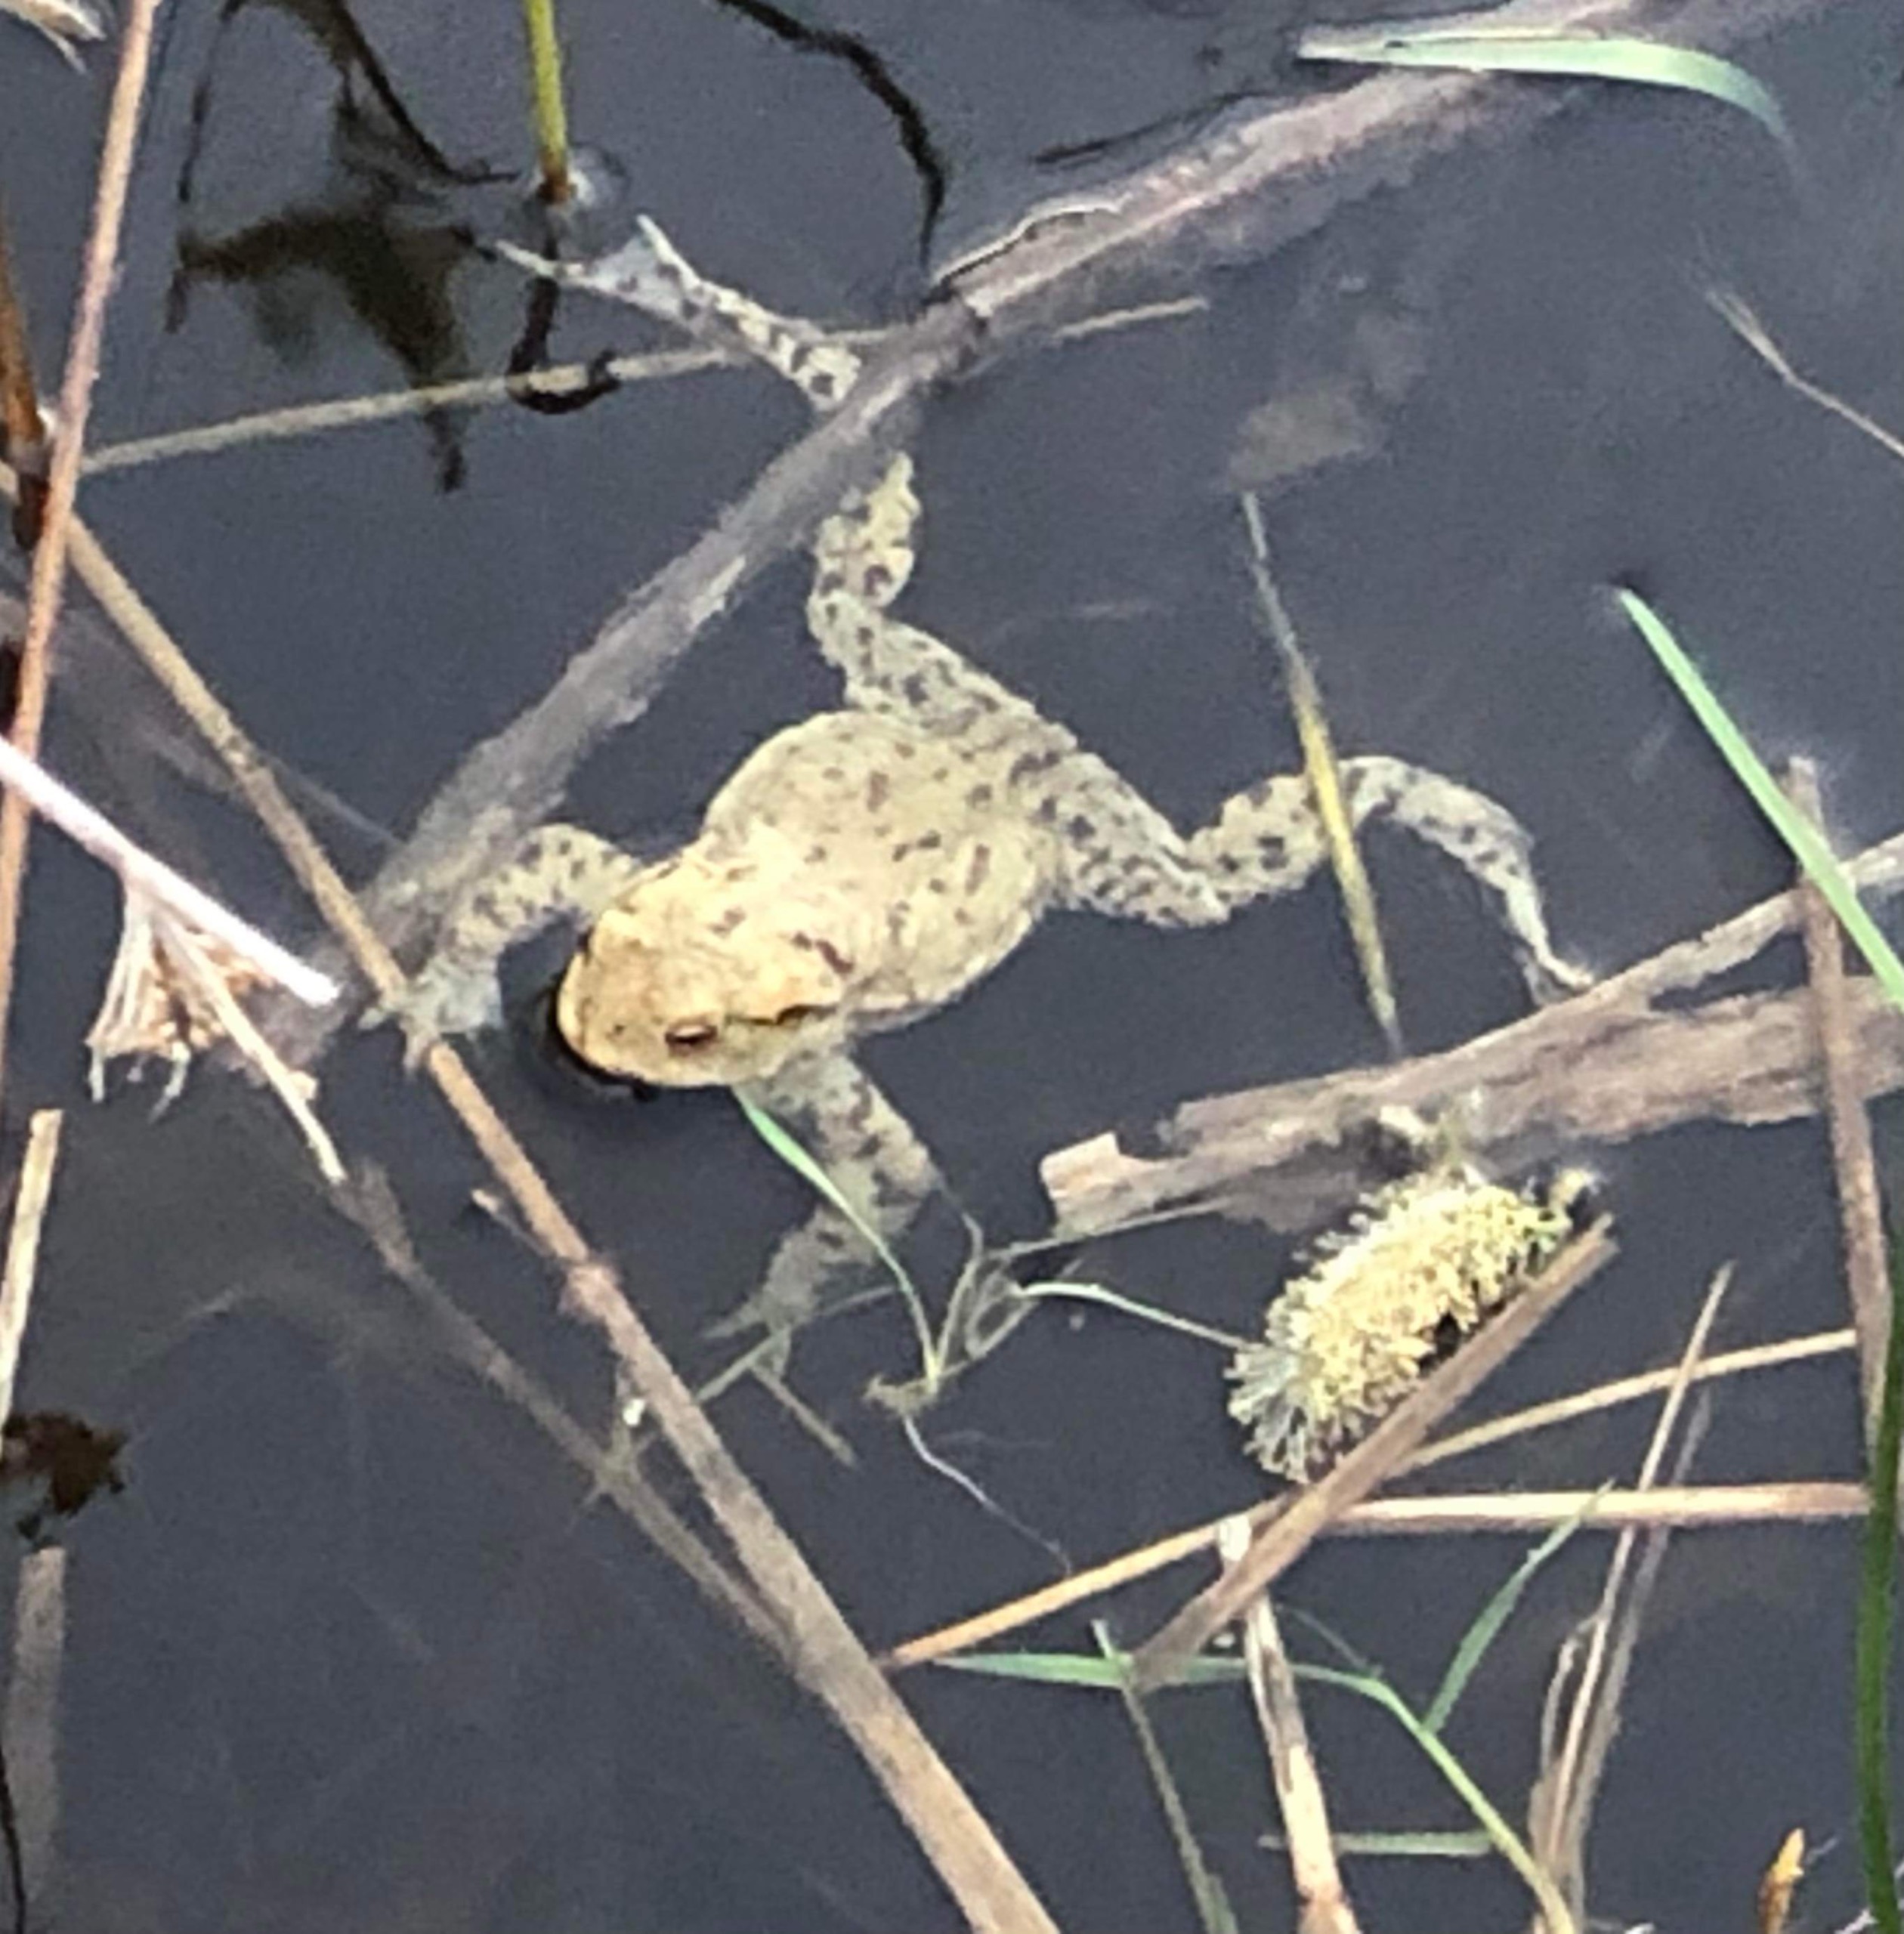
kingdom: Animalia
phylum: Chordata
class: Amphibia
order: Anura
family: Bufonidae
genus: Bufo
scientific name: Bufo bufo
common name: Skrubtudse
